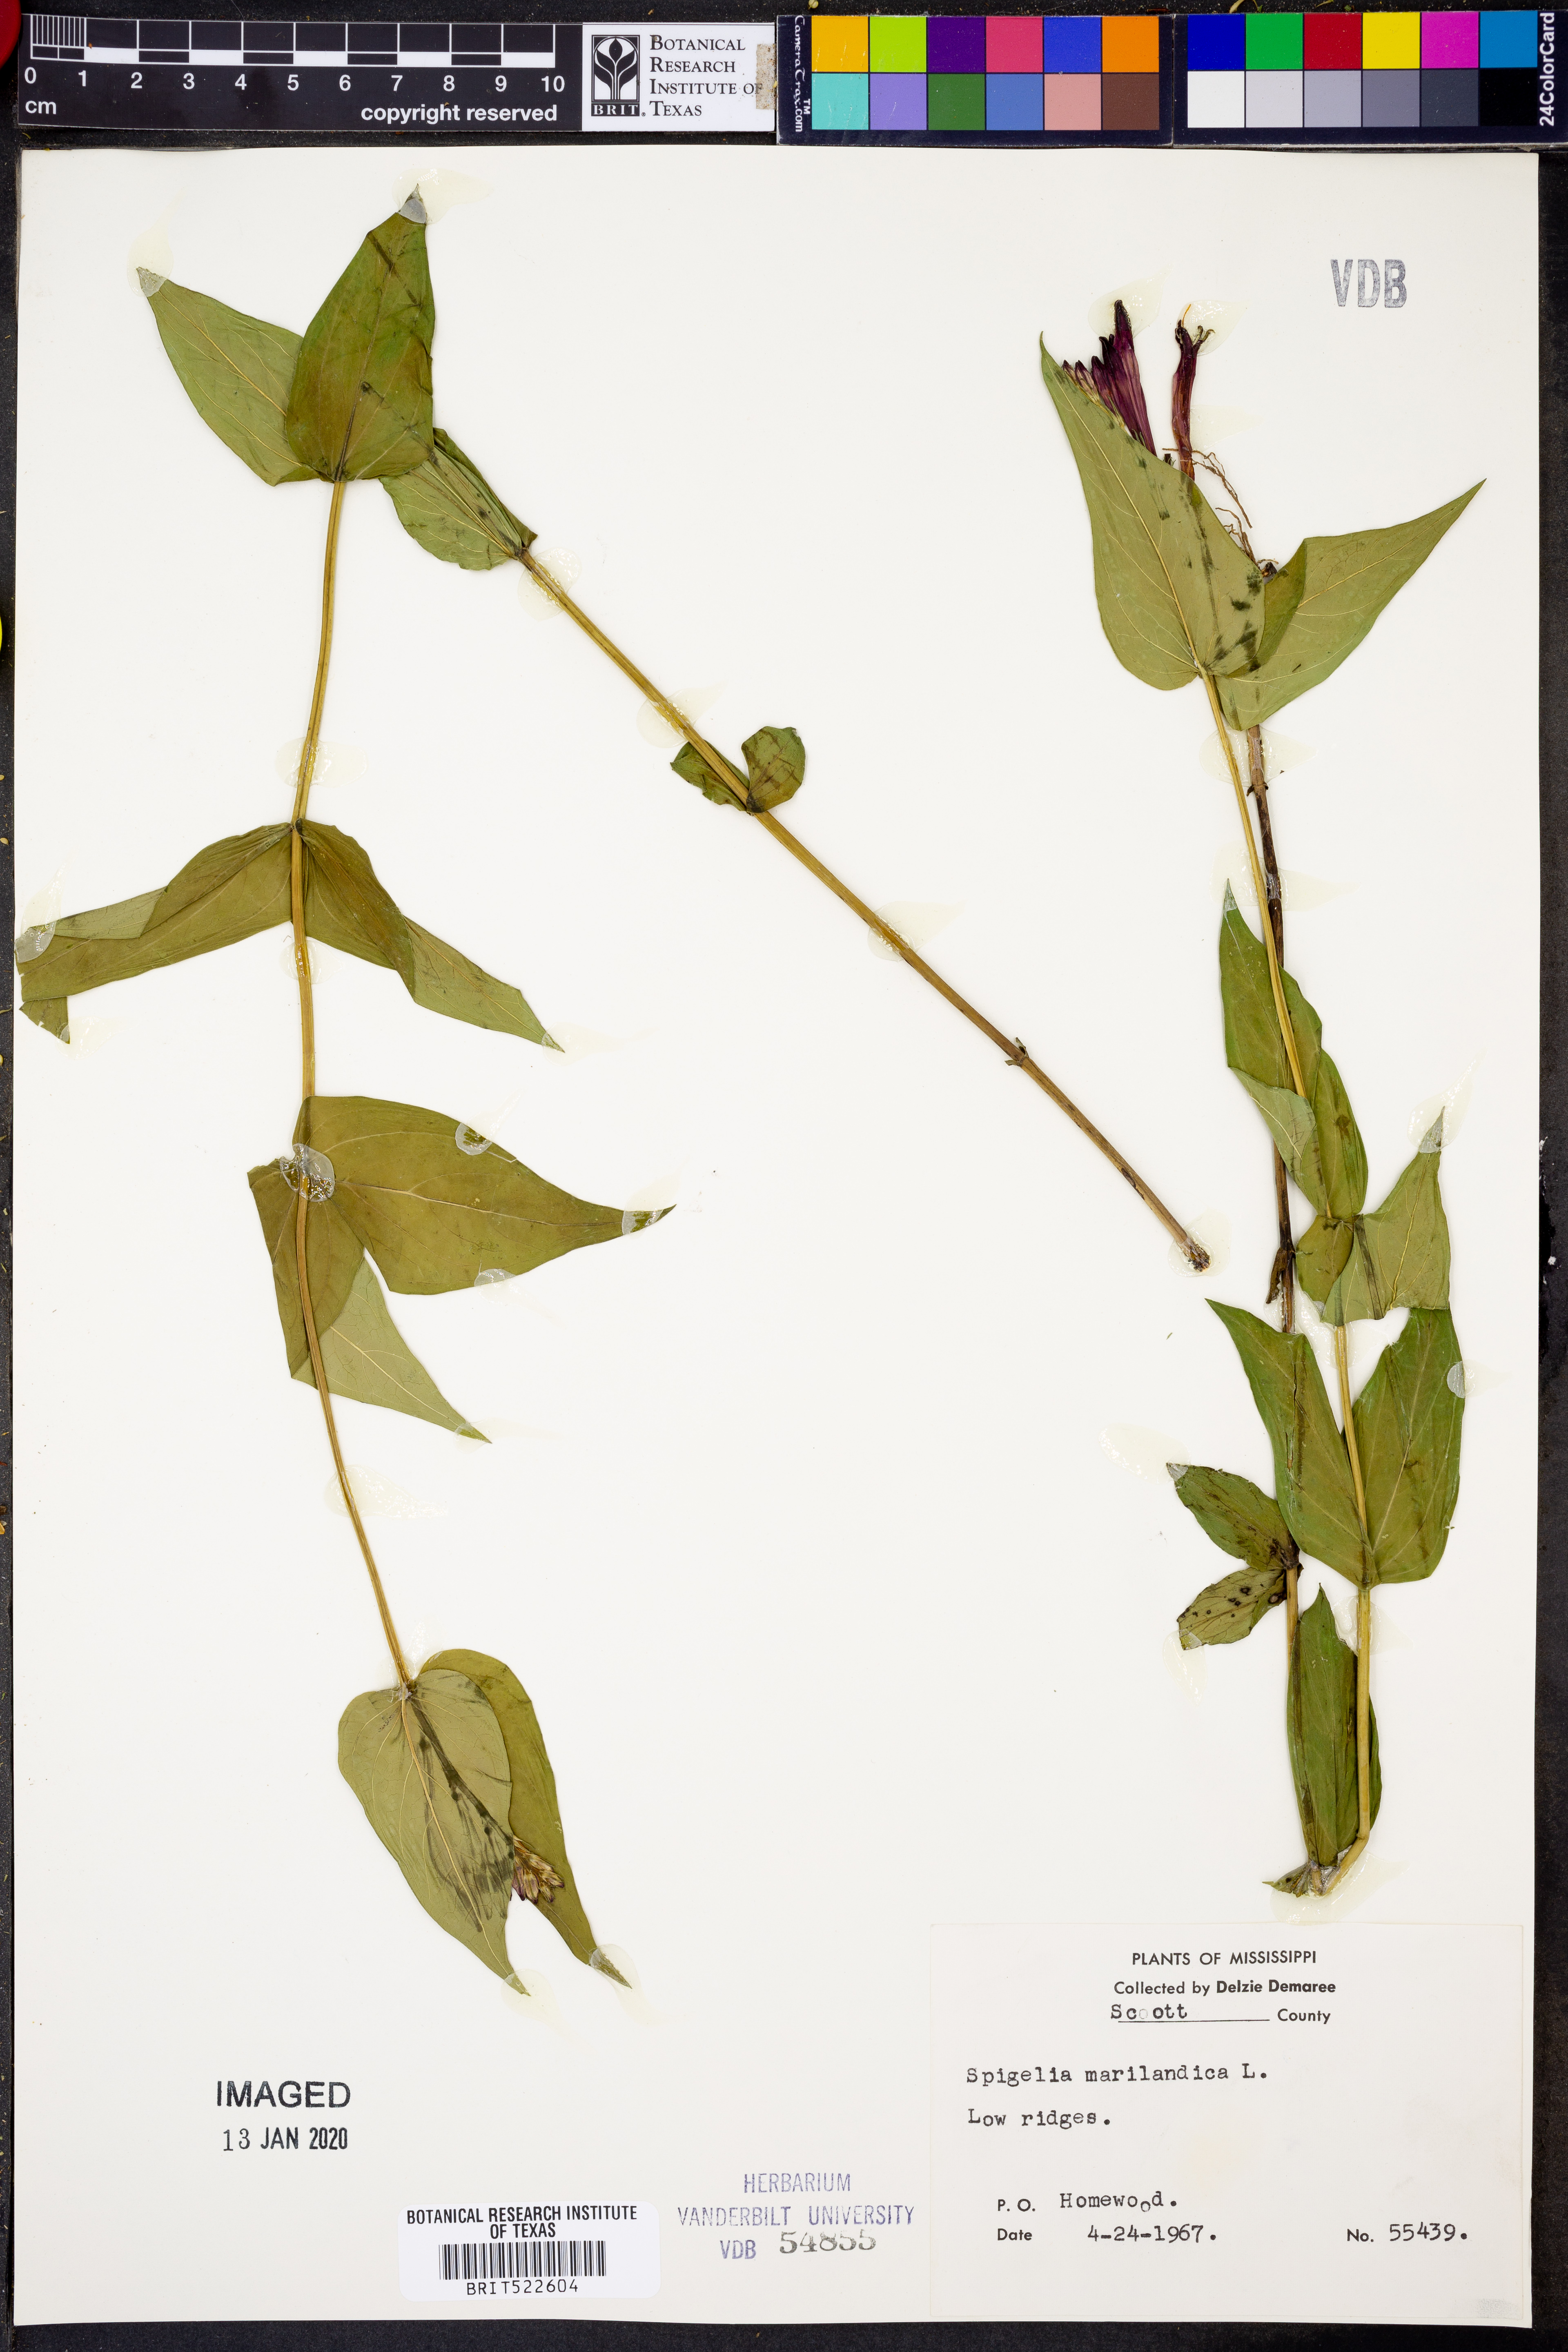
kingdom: Plantae
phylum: Tracheophyta
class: Magnoliopsida
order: Gentianales
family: Loganiaceae
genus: Spigelia
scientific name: Spigelia marilandica
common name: Indian-pink
